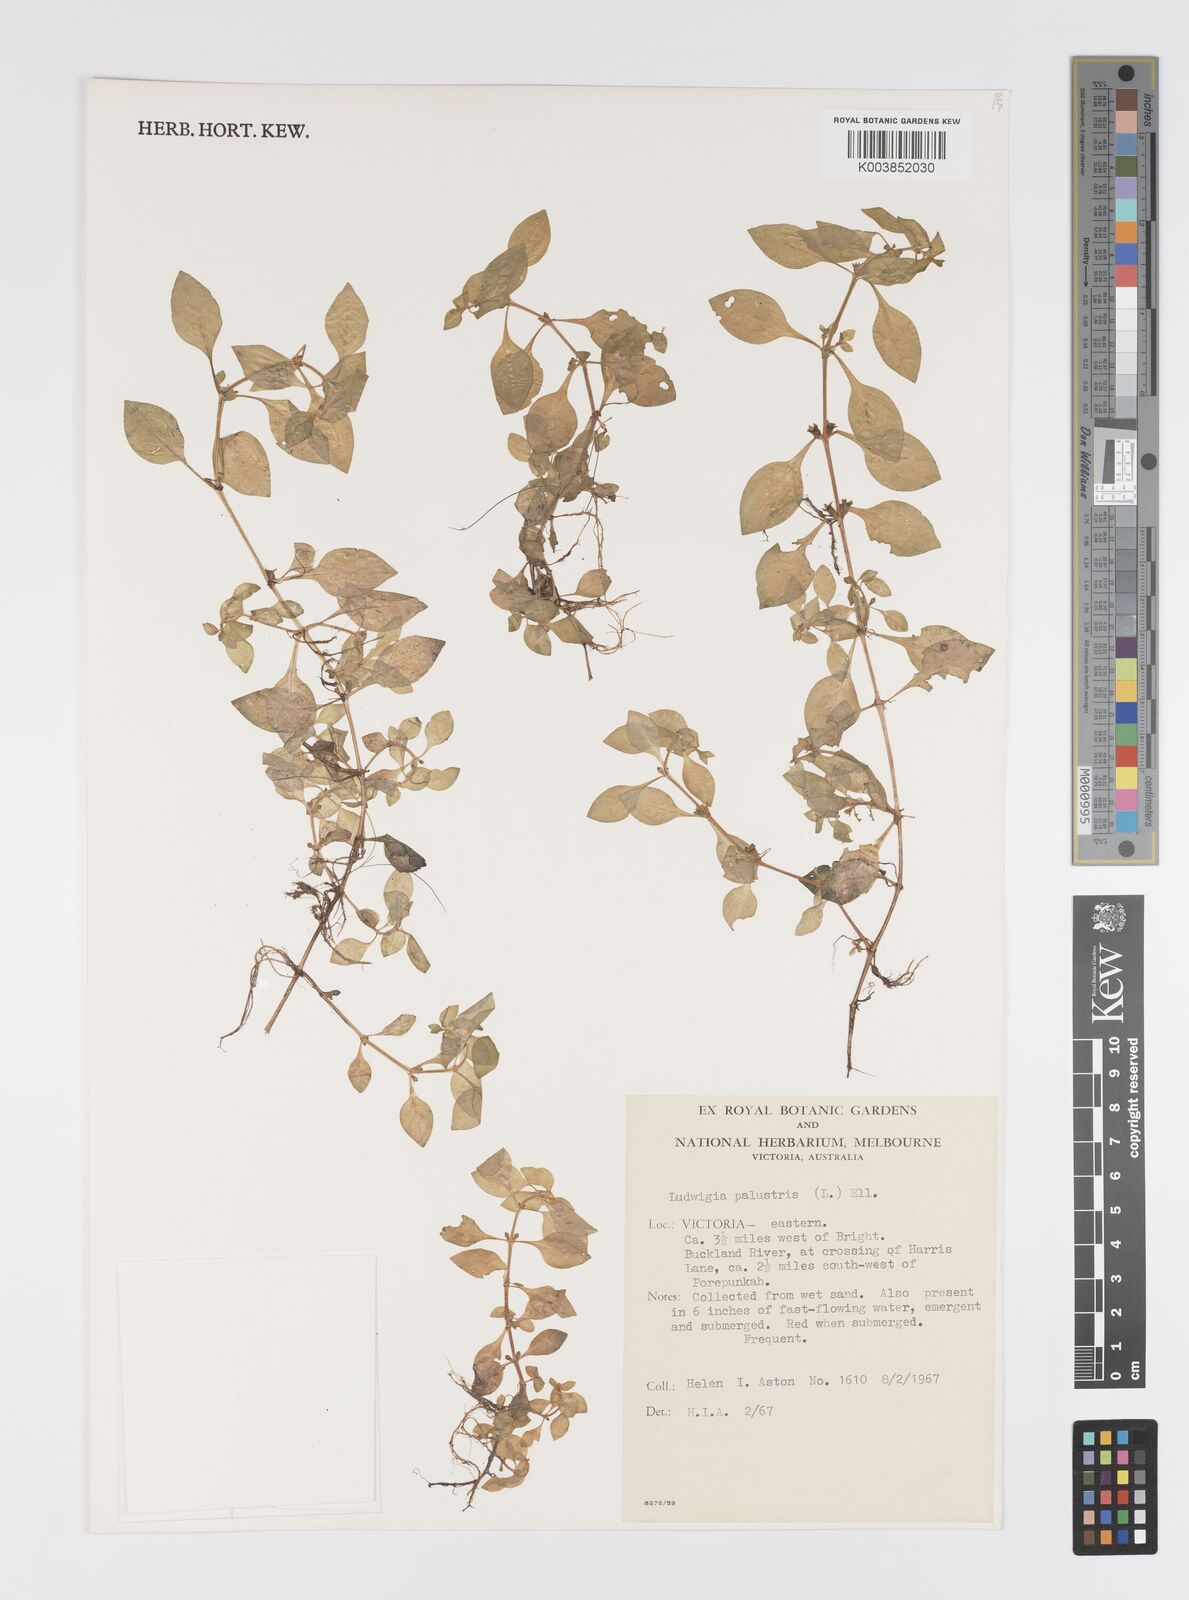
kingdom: Plantae
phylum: Tracheophyta
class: Magnoliopsida
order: Myrtales
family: Onagraceae
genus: Ludwigia
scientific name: Ludwigia palustris
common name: Hampshire-purslane
